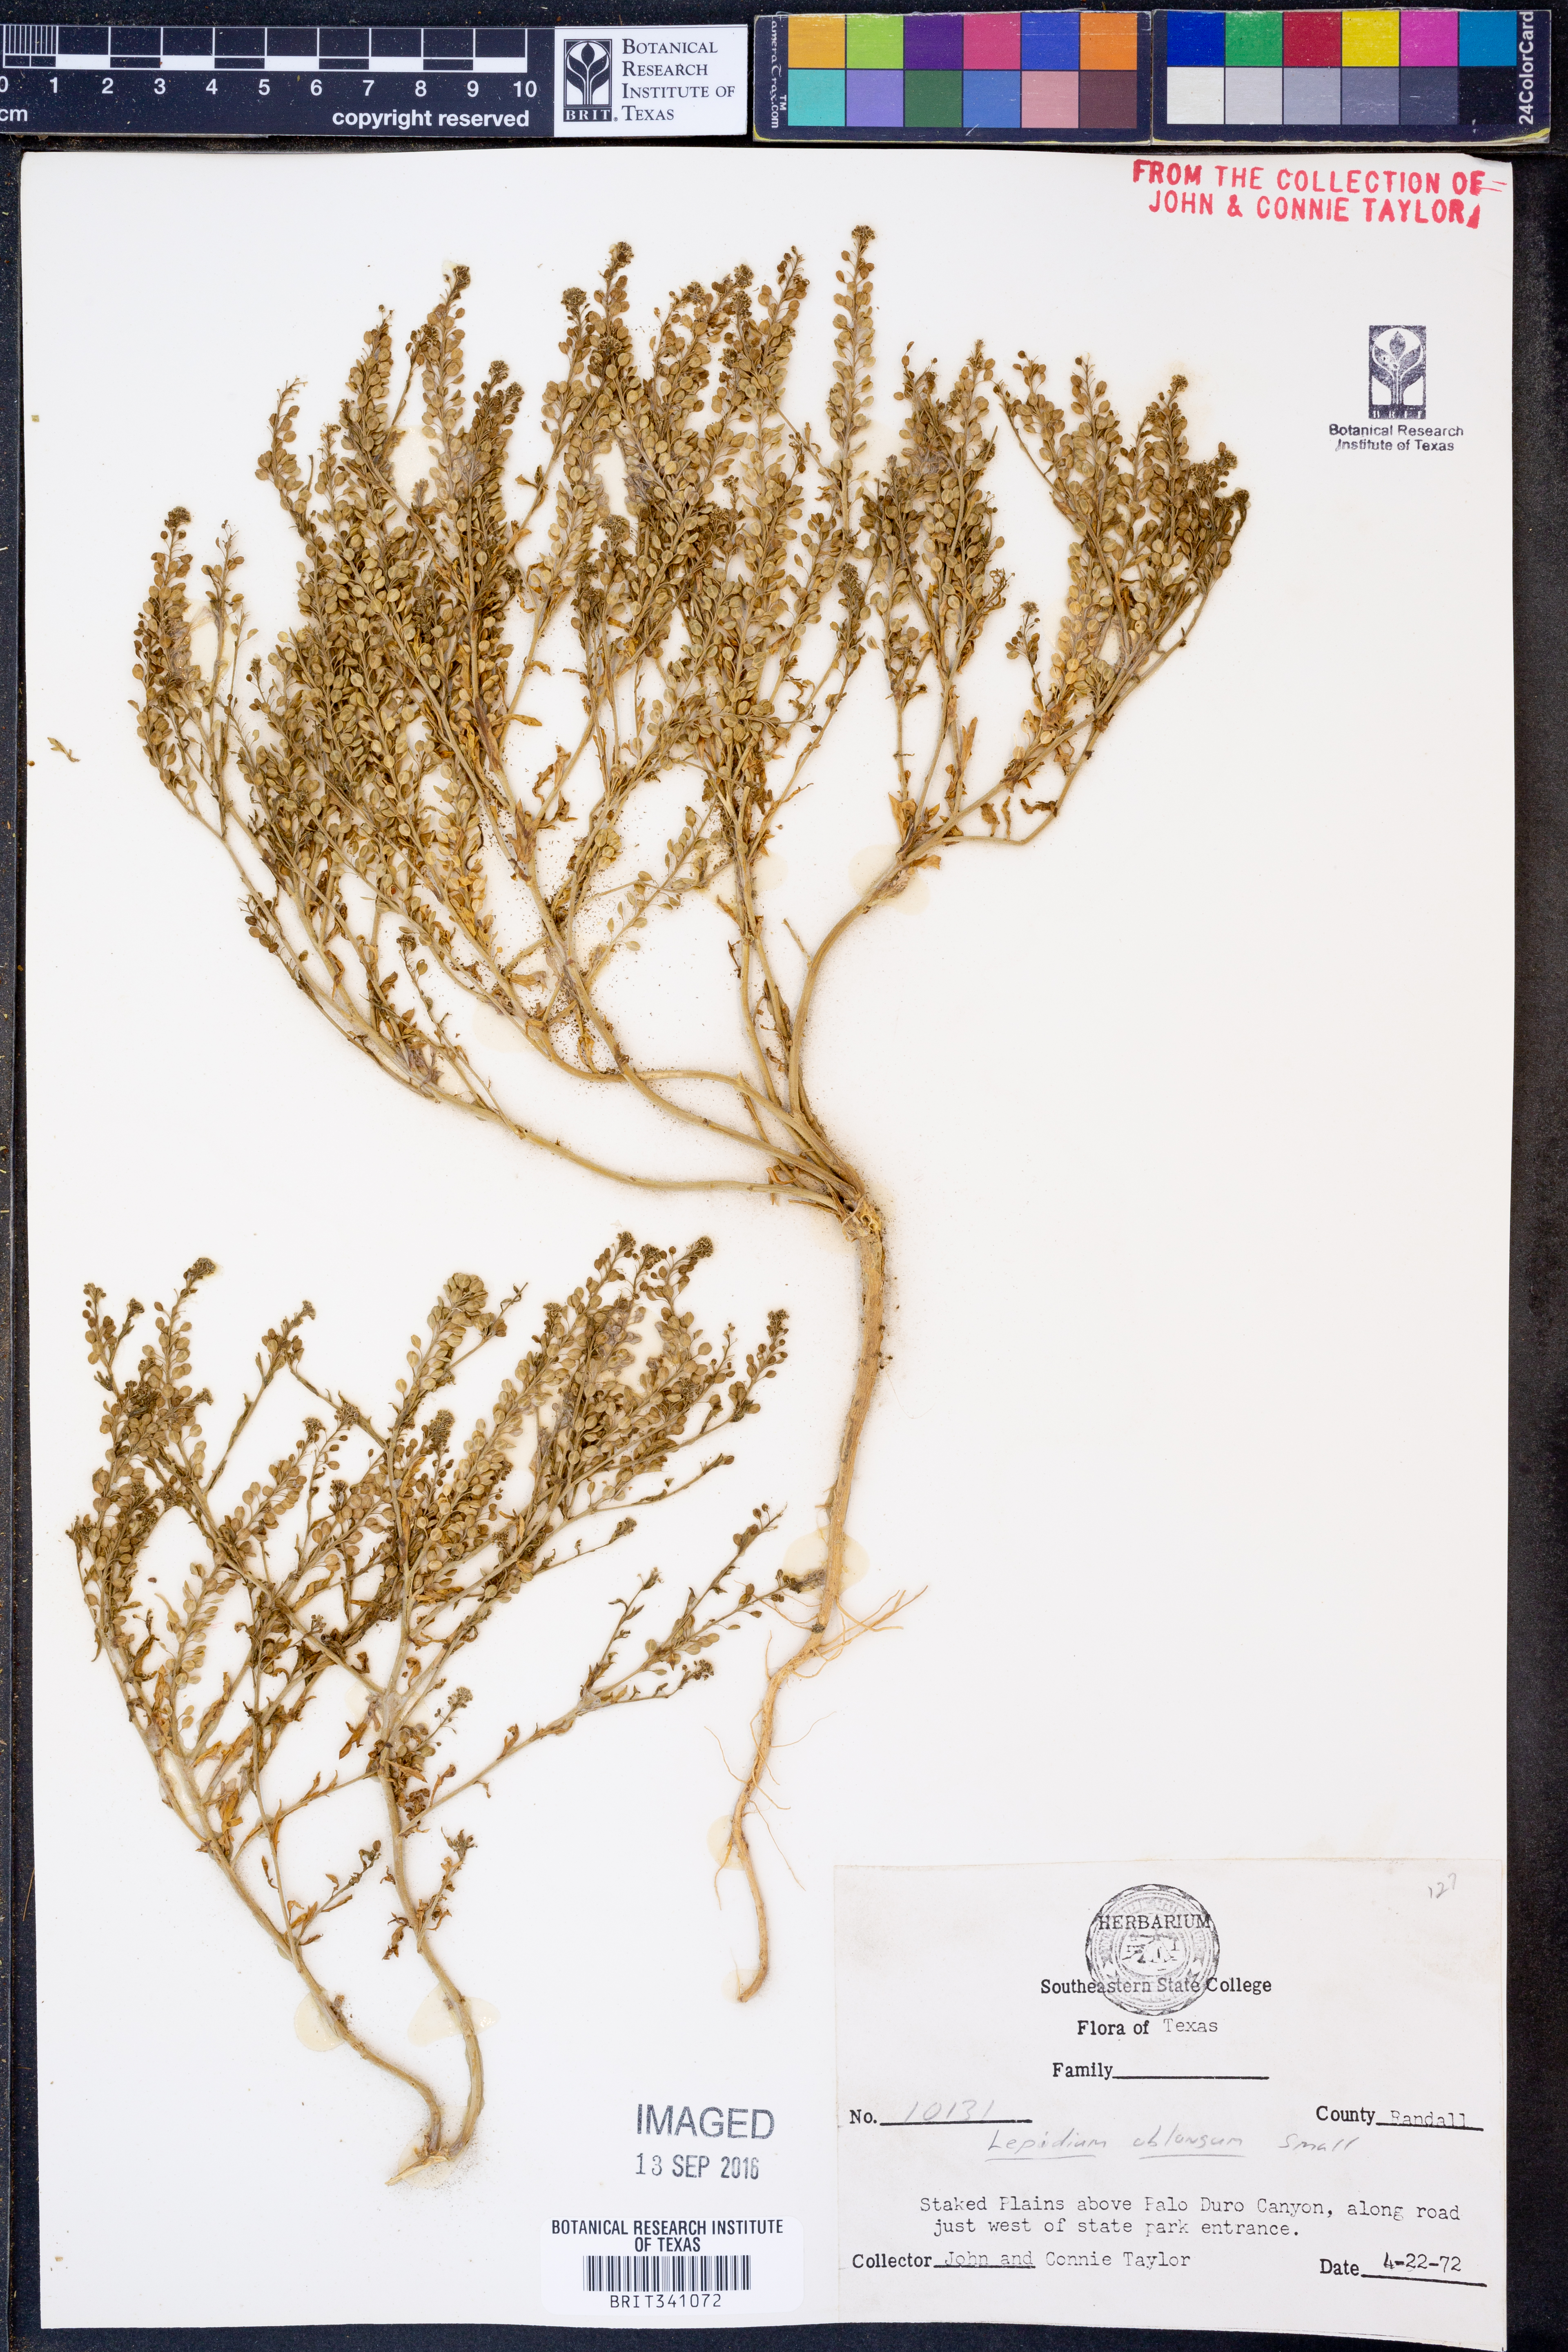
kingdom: Plantae
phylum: Tracheophyta
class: Magnoliopsida
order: Brassicales
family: Brassicaceae
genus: Lepidium
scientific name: Lepidium oblongum
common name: Veiny pepperweed
